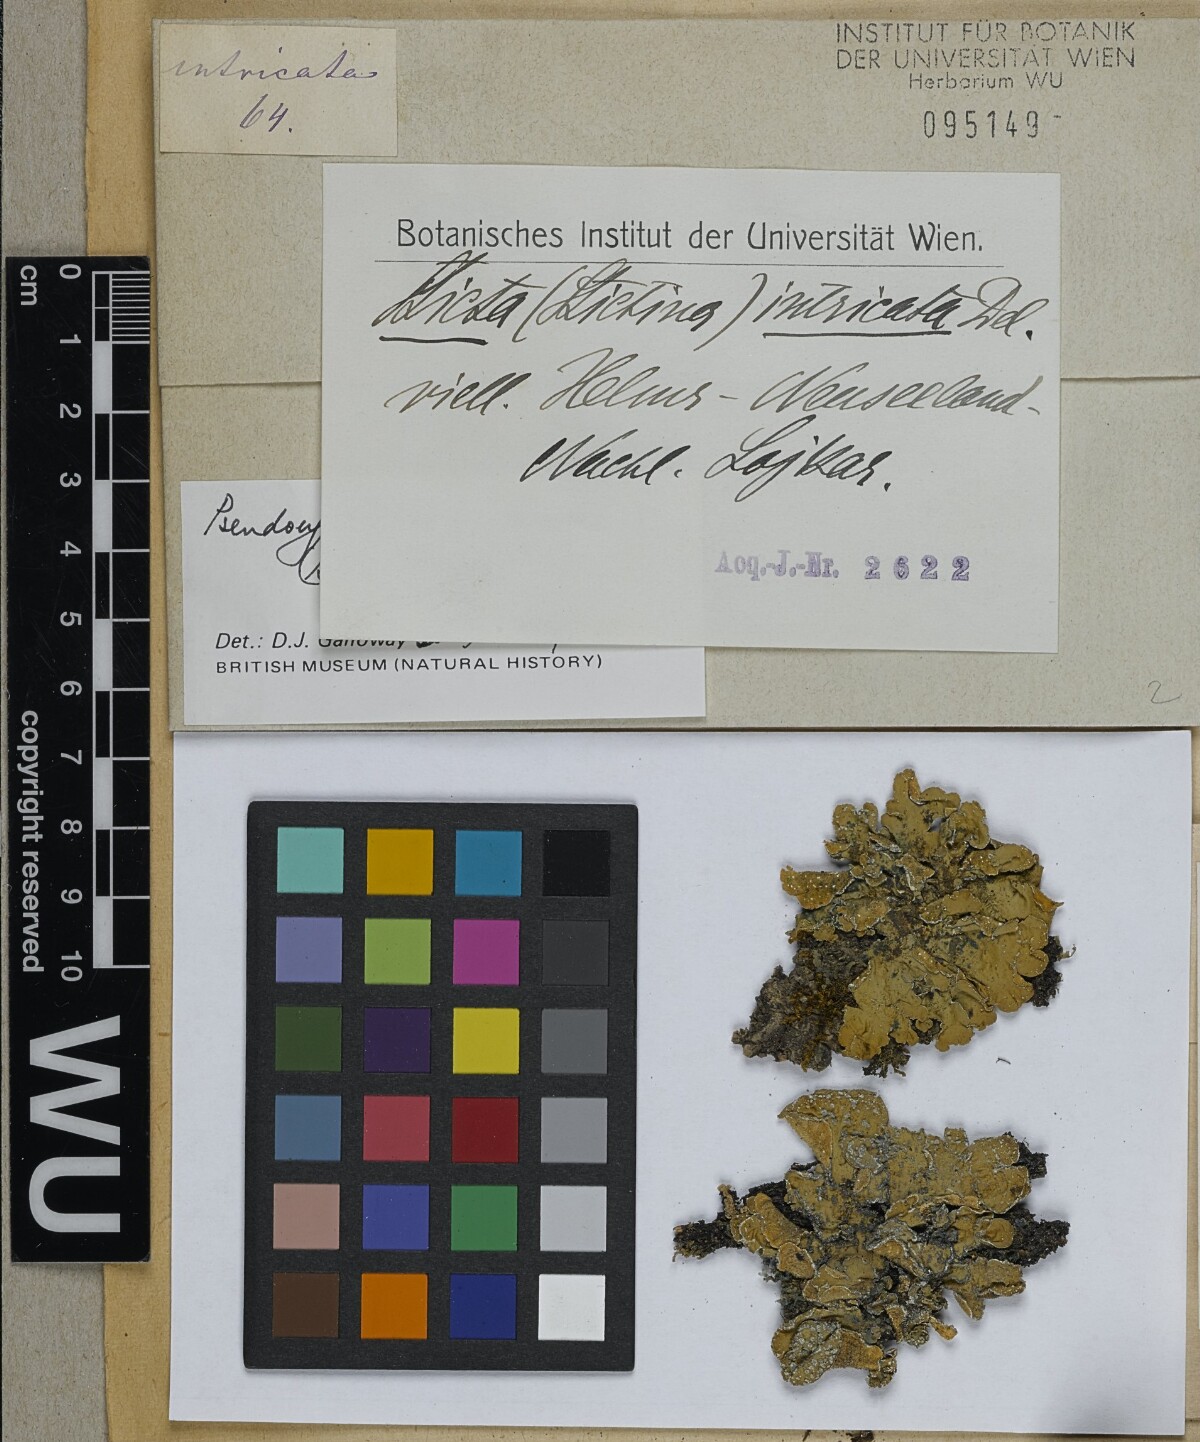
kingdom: Fungi
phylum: Ascomycota
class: Lecanoromycetes
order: Peltigerales
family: Lobariaceae
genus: Pseudocyphellaria
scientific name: Pseudocyphellaria intricata
